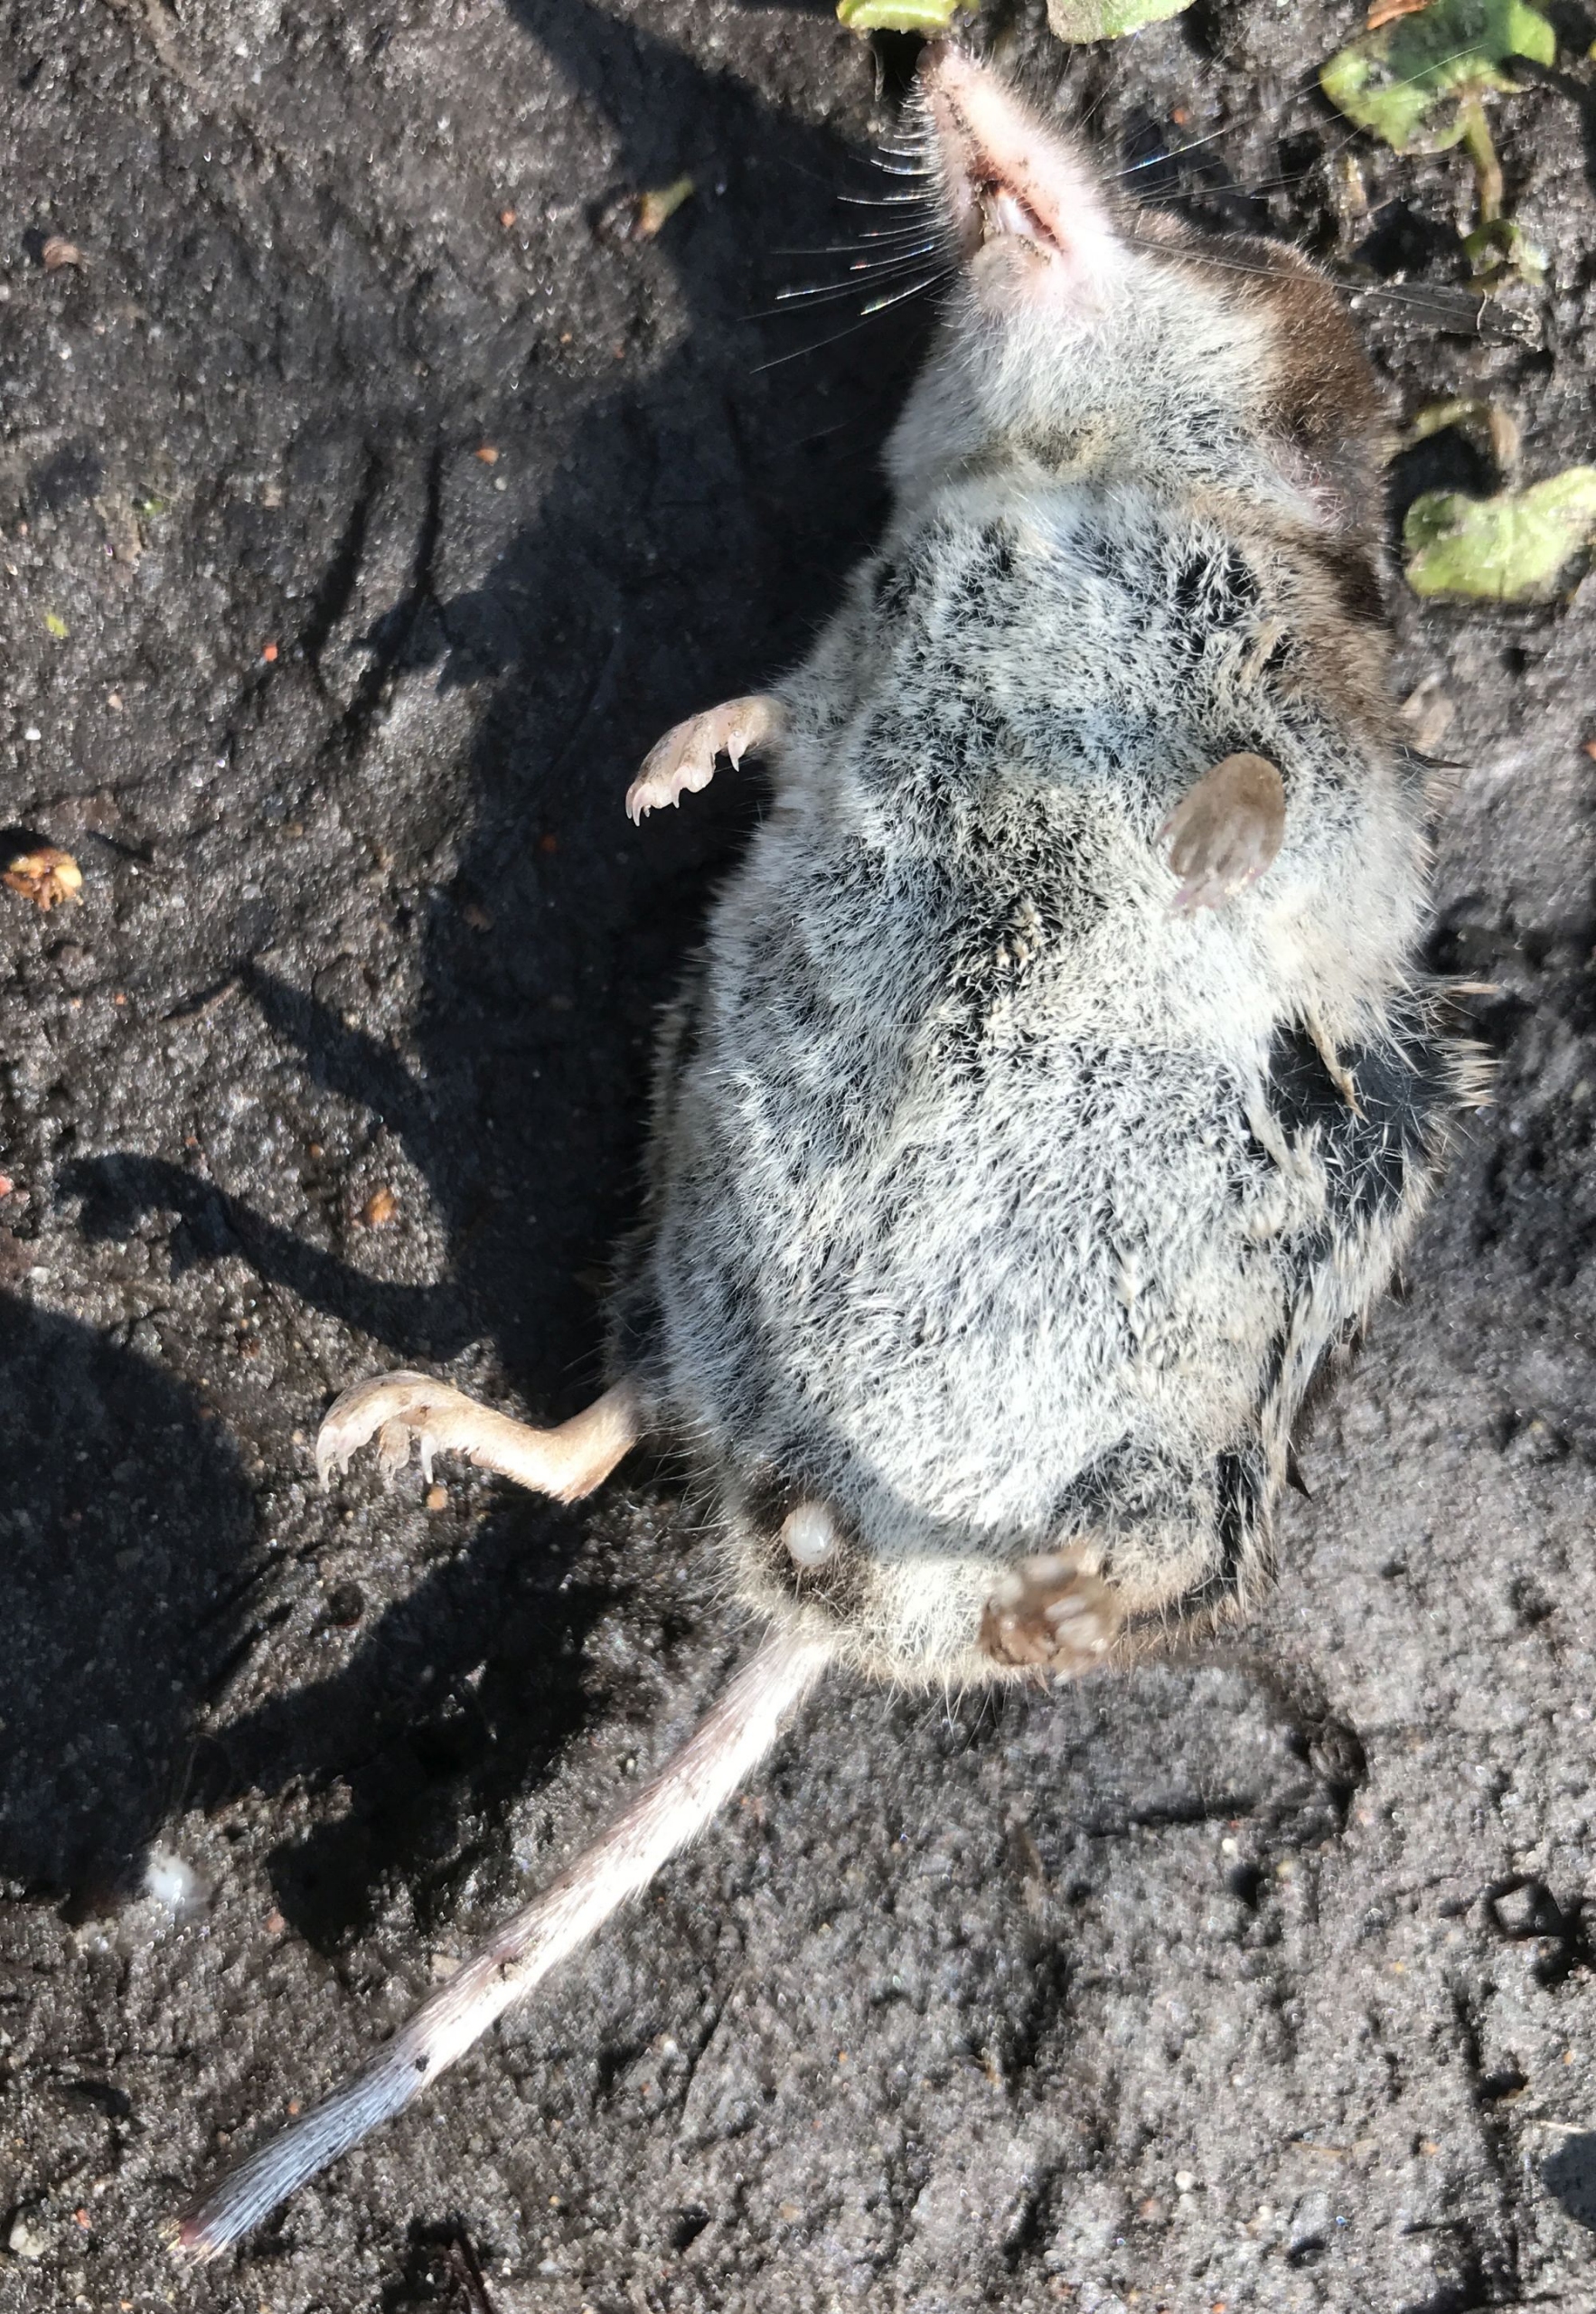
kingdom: Animalia
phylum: Chordata
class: Mammalia
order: Soricomorpha
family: Soricidae
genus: Sorex
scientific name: Sorex araneus
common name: Almindelig spidsmus
